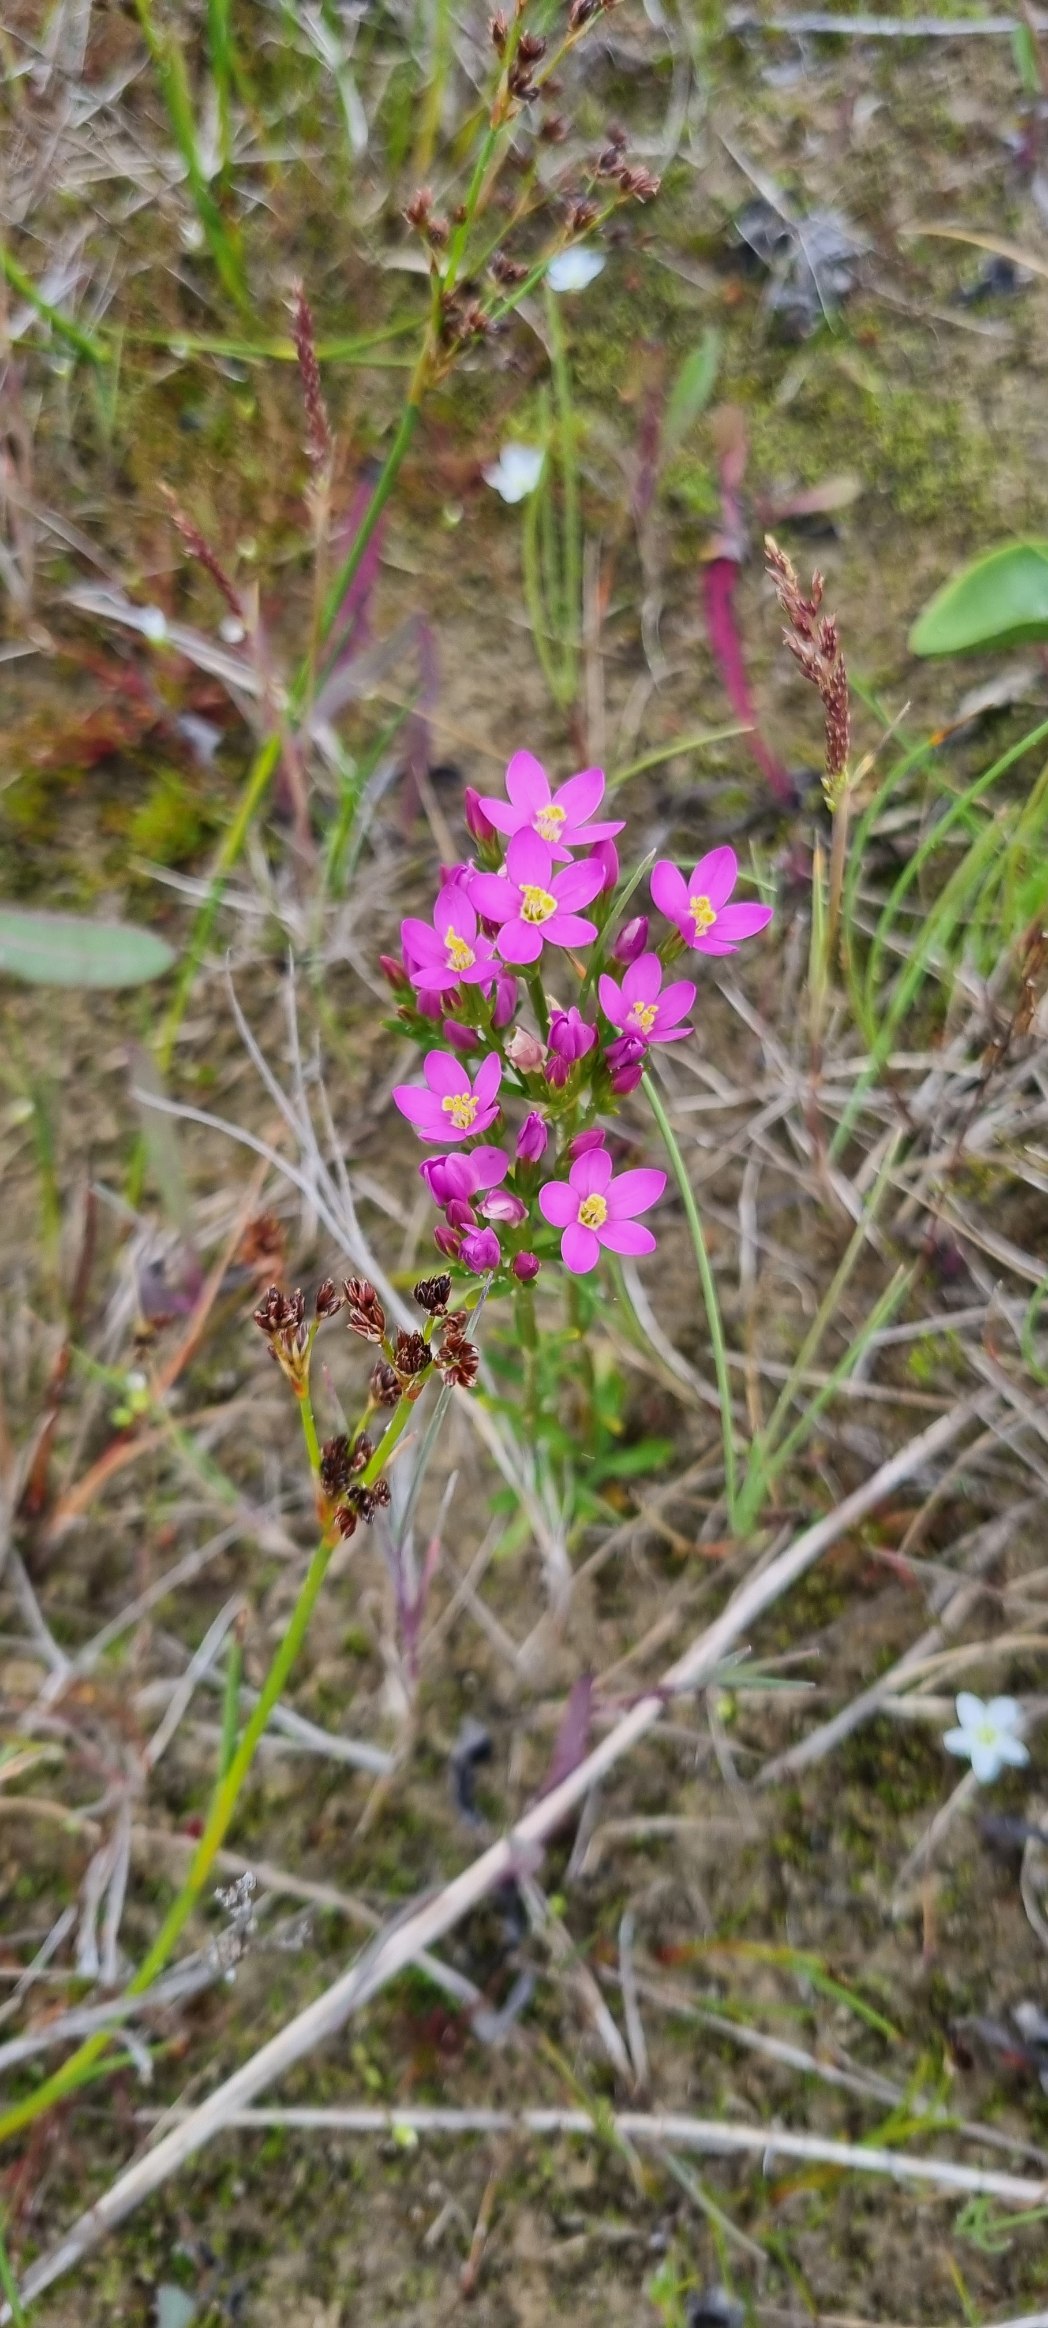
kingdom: Plantae
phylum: Tracheophyta
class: Magnoliopsida
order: Gentianales
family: Gentianaceae
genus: Centaurium
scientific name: Centaurium littorale
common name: Strand-tusindgylden
